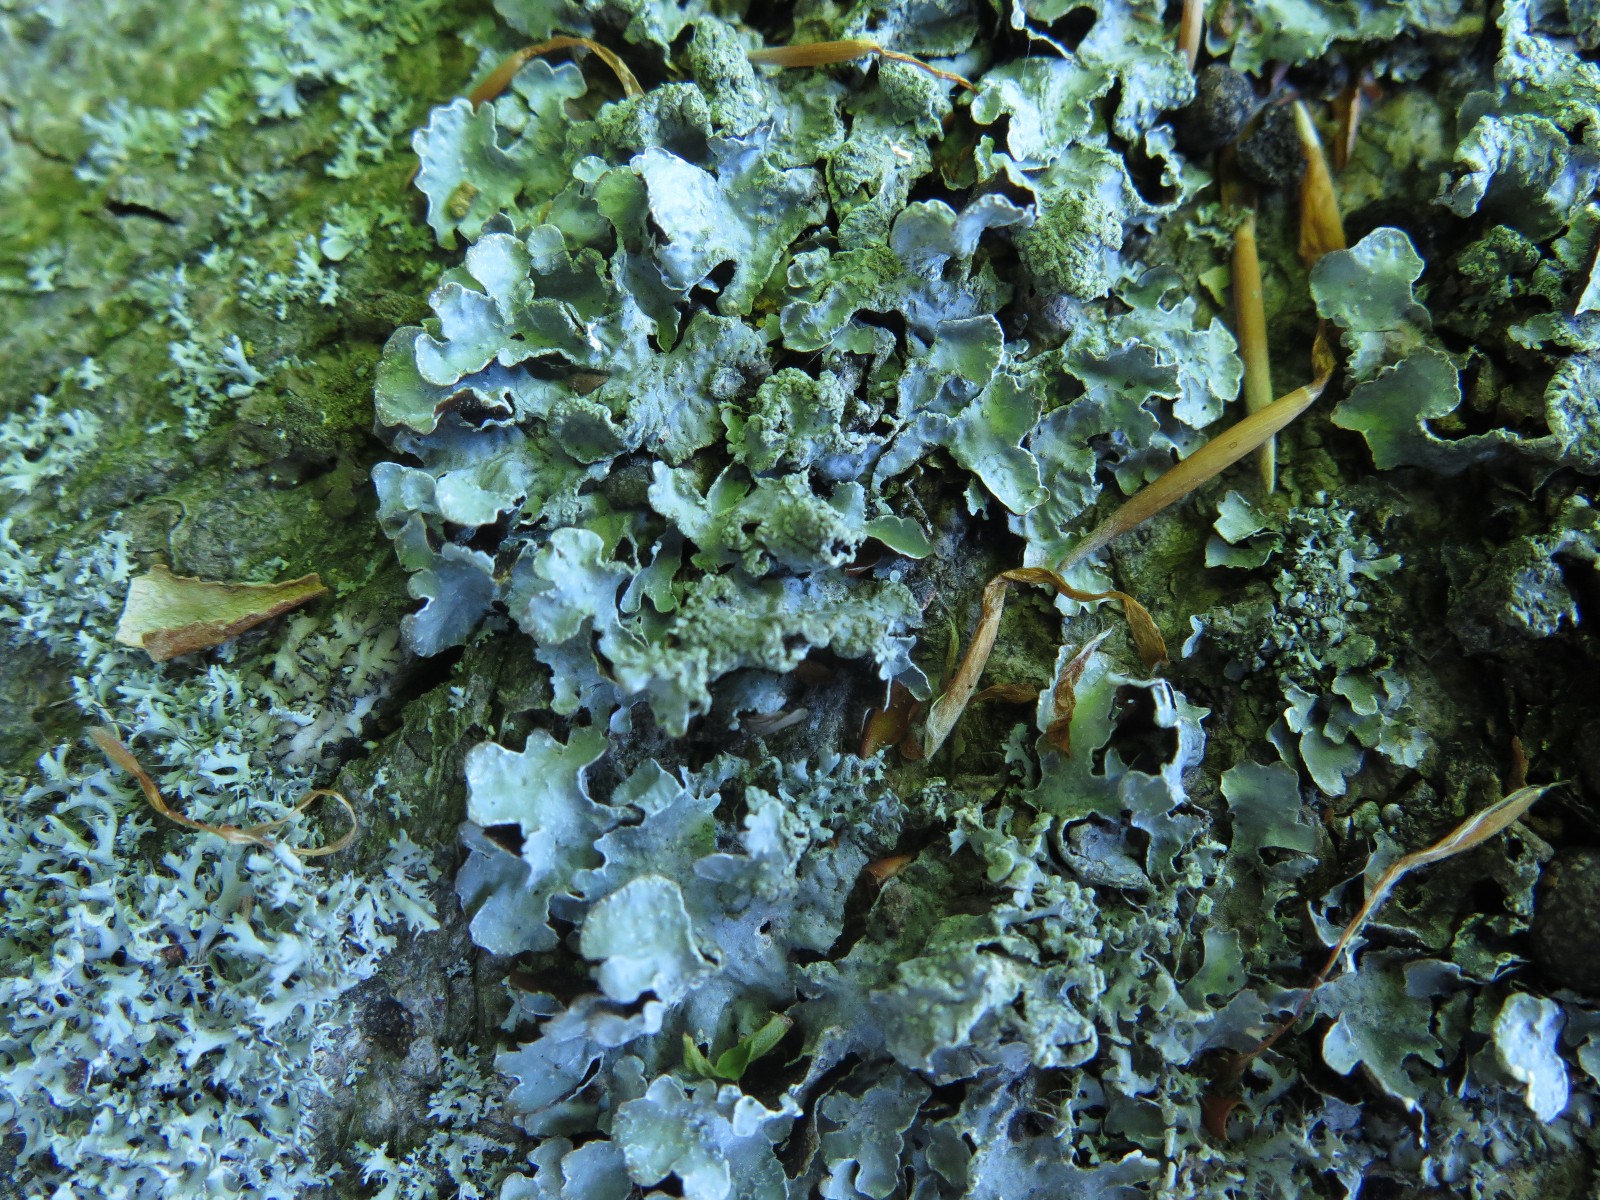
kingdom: Fungi
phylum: Ascomycota
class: Lecanoromycetes
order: Lecanorales
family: Parmeliaceae
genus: Parmelia
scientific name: Parmelia sulcata
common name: rynket skållav
